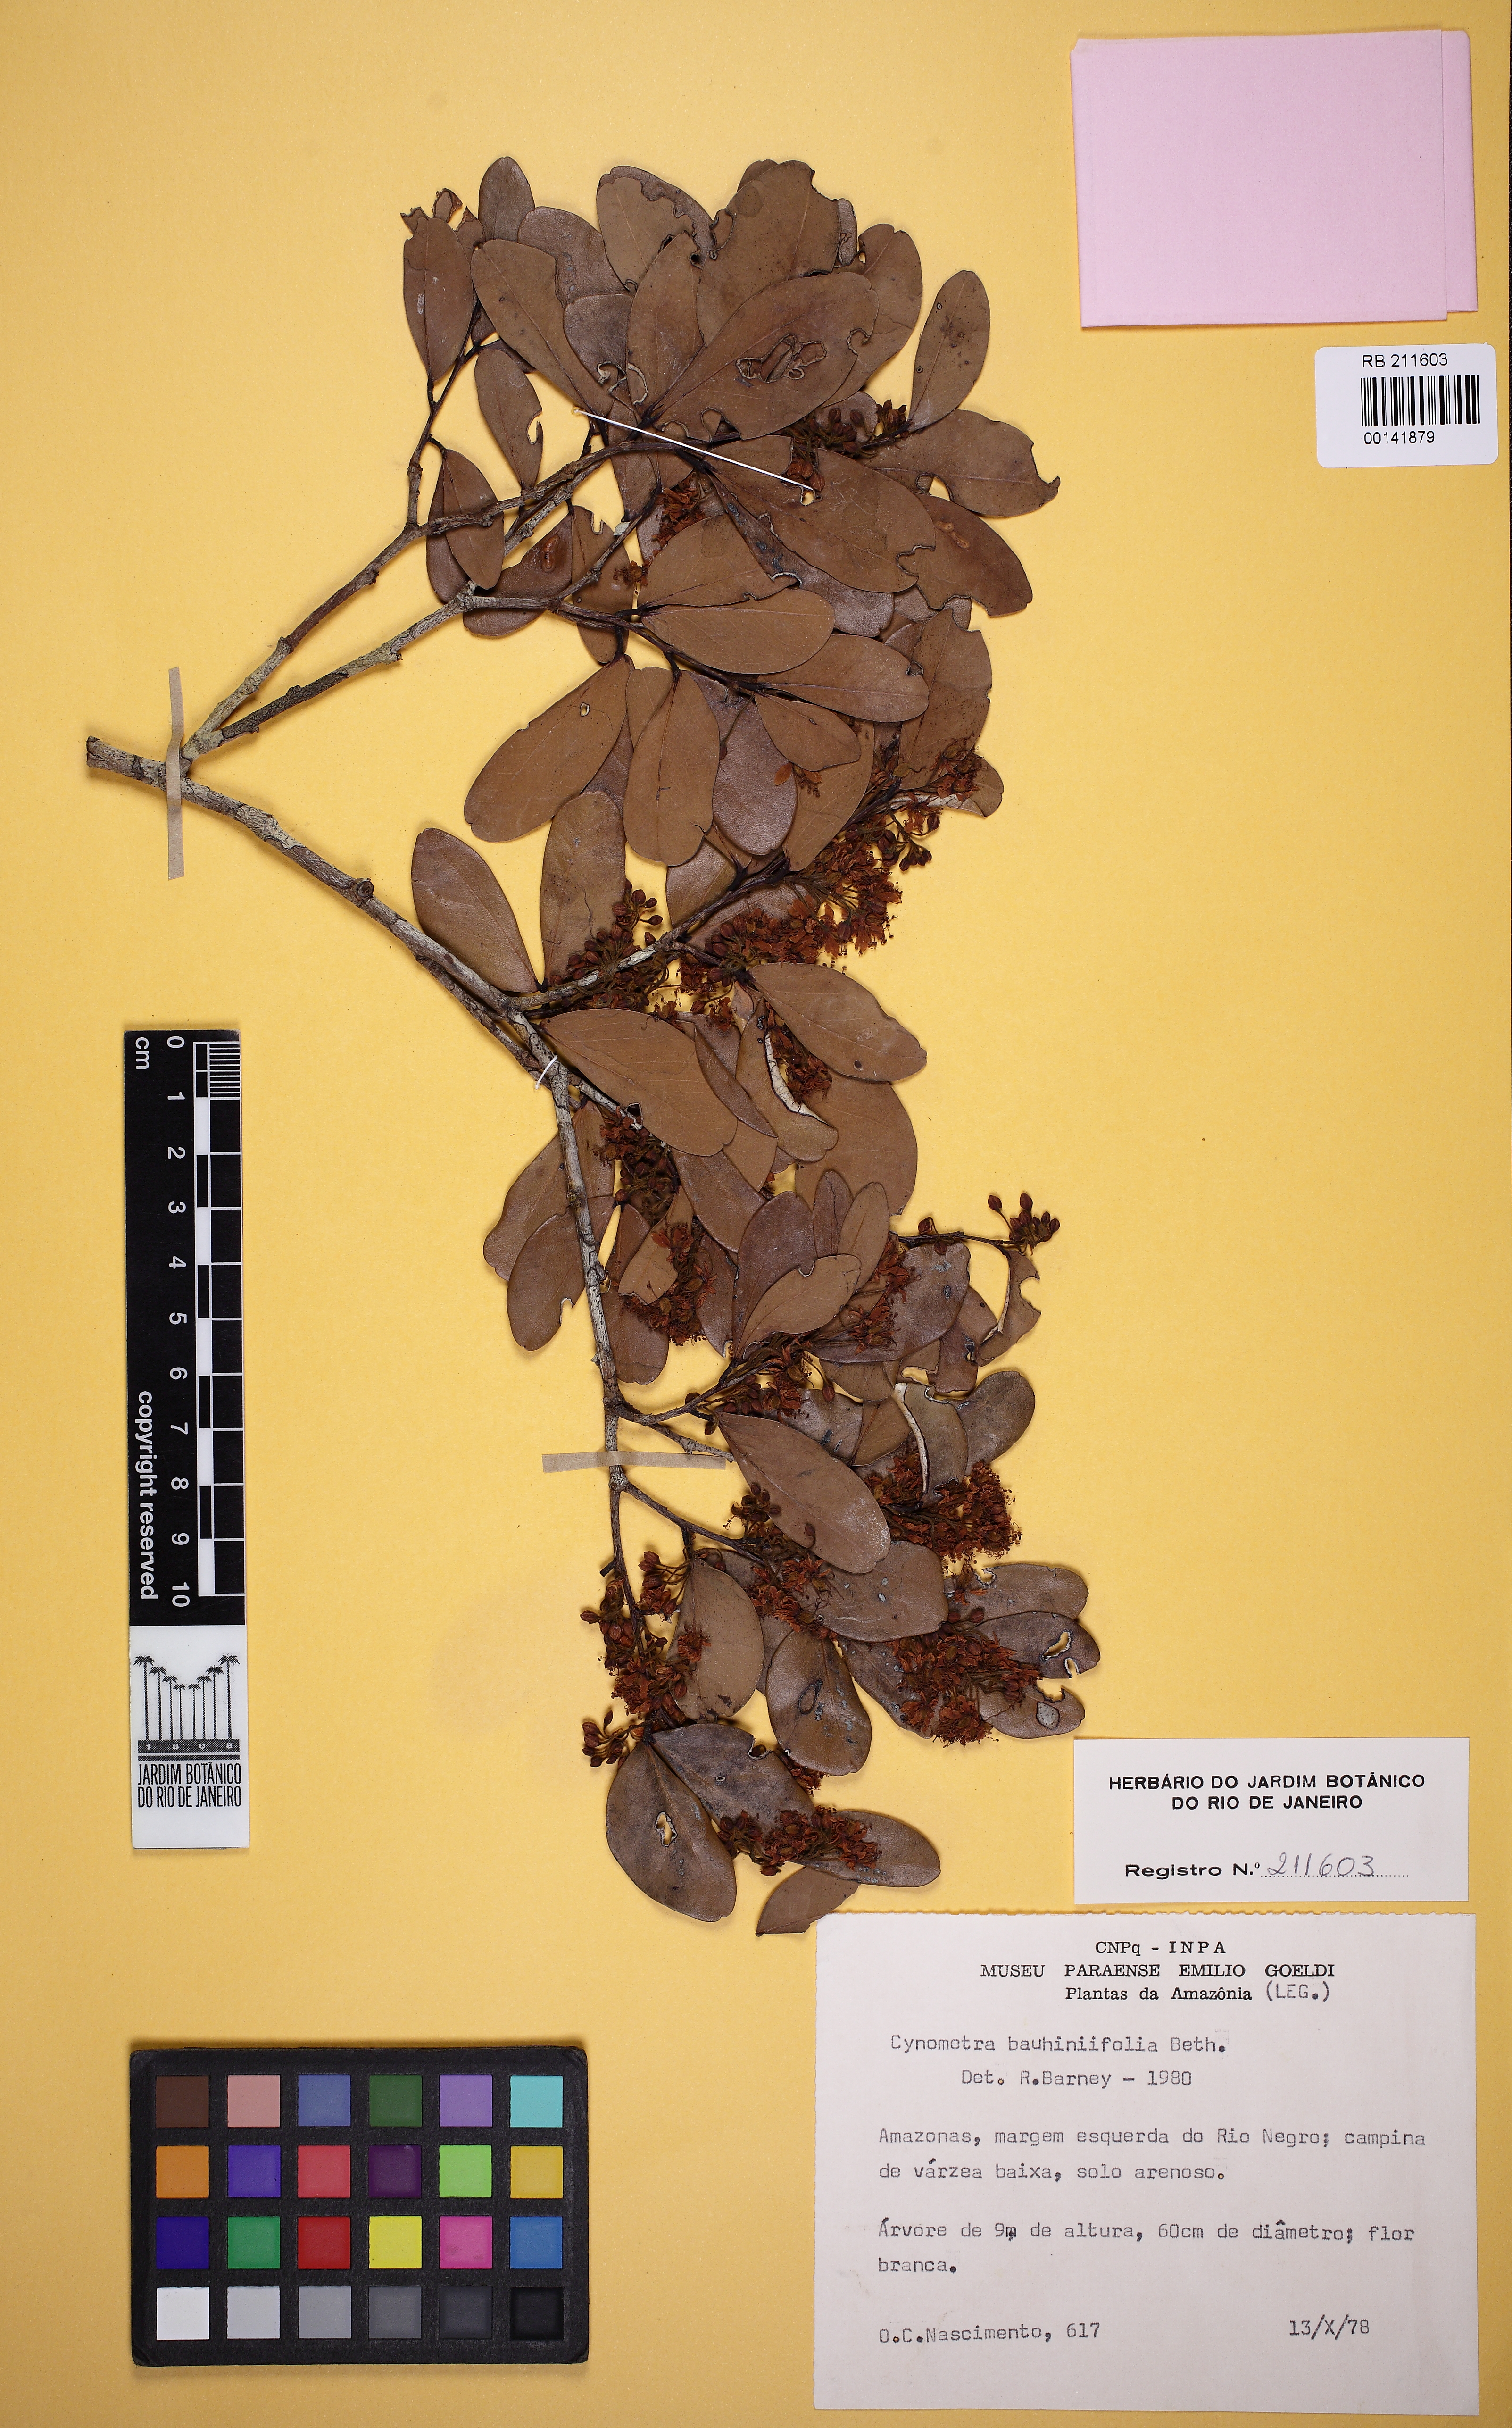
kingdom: Plantae
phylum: Tracheophyta
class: Magnoliopsida
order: Fabales
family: Fabaceae
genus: Cynometra
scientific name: Cynometra spruceana
